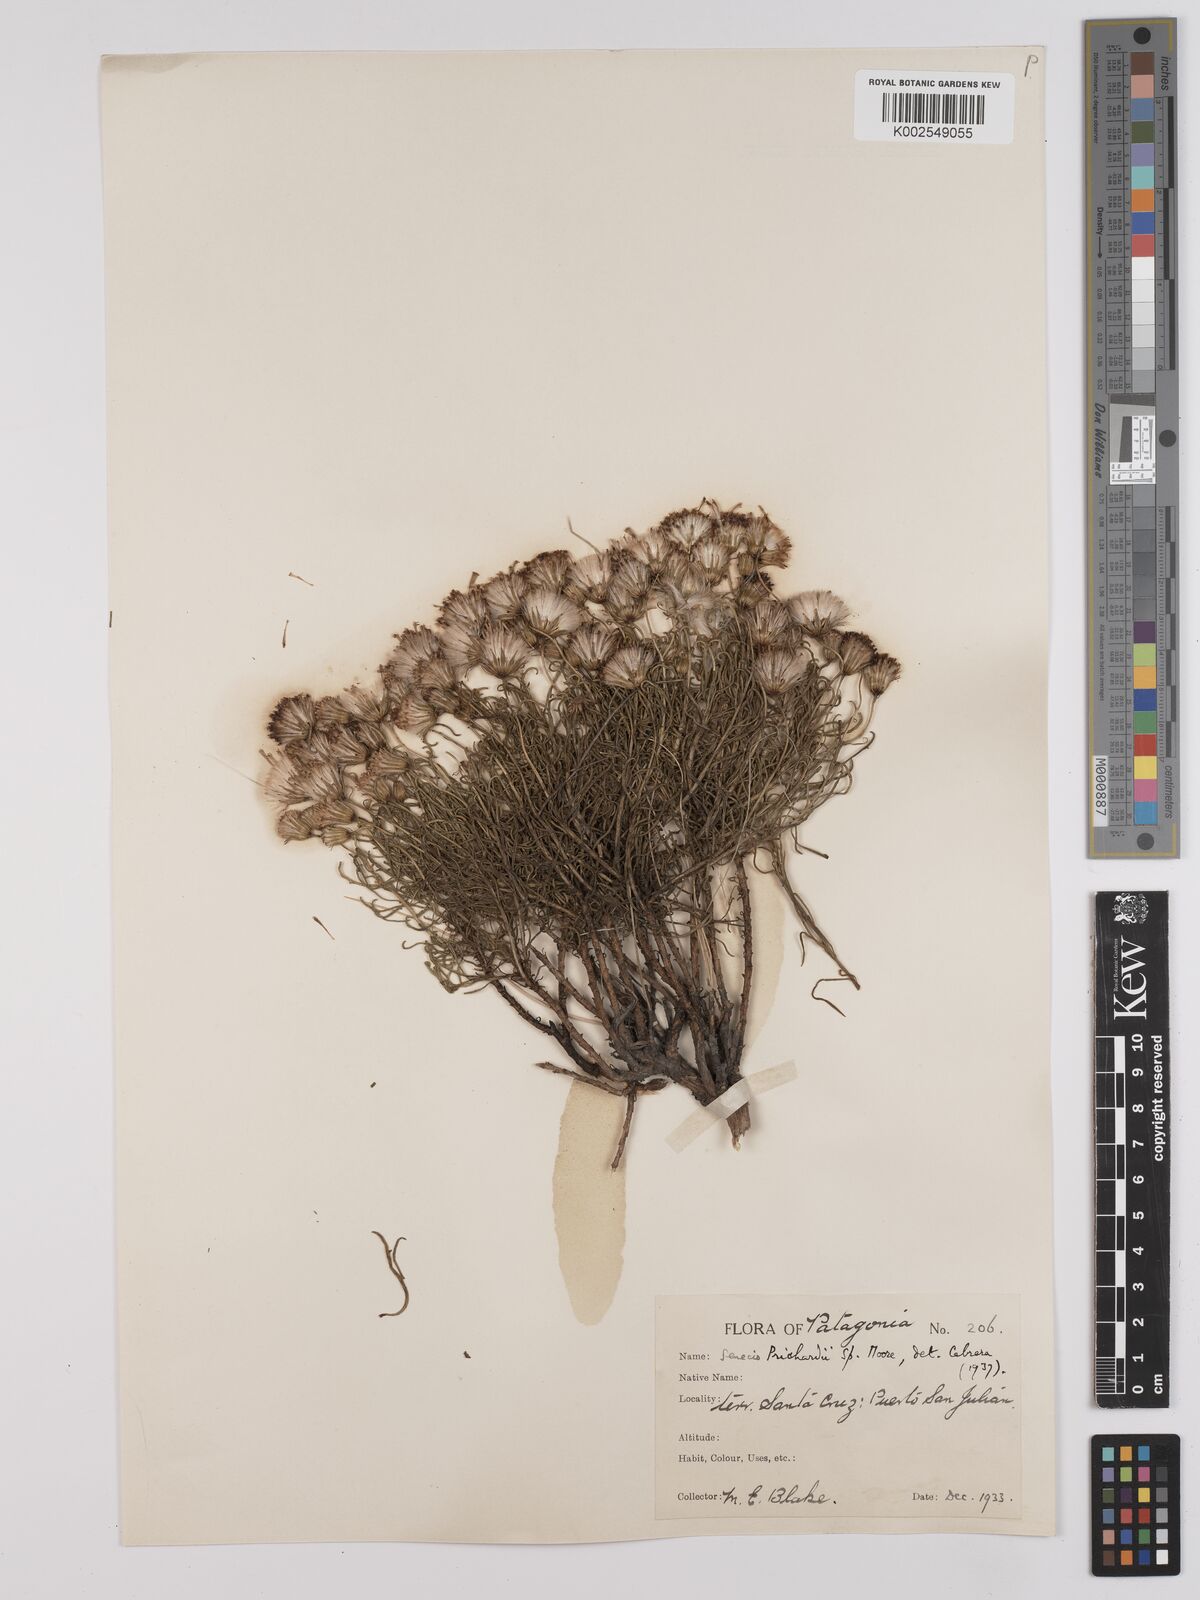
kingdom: Plantae
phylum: Tracheophyta
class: Magnoliopsida
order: Asterales
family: Asteraceae
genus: Senecio
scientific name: Senecio miser
